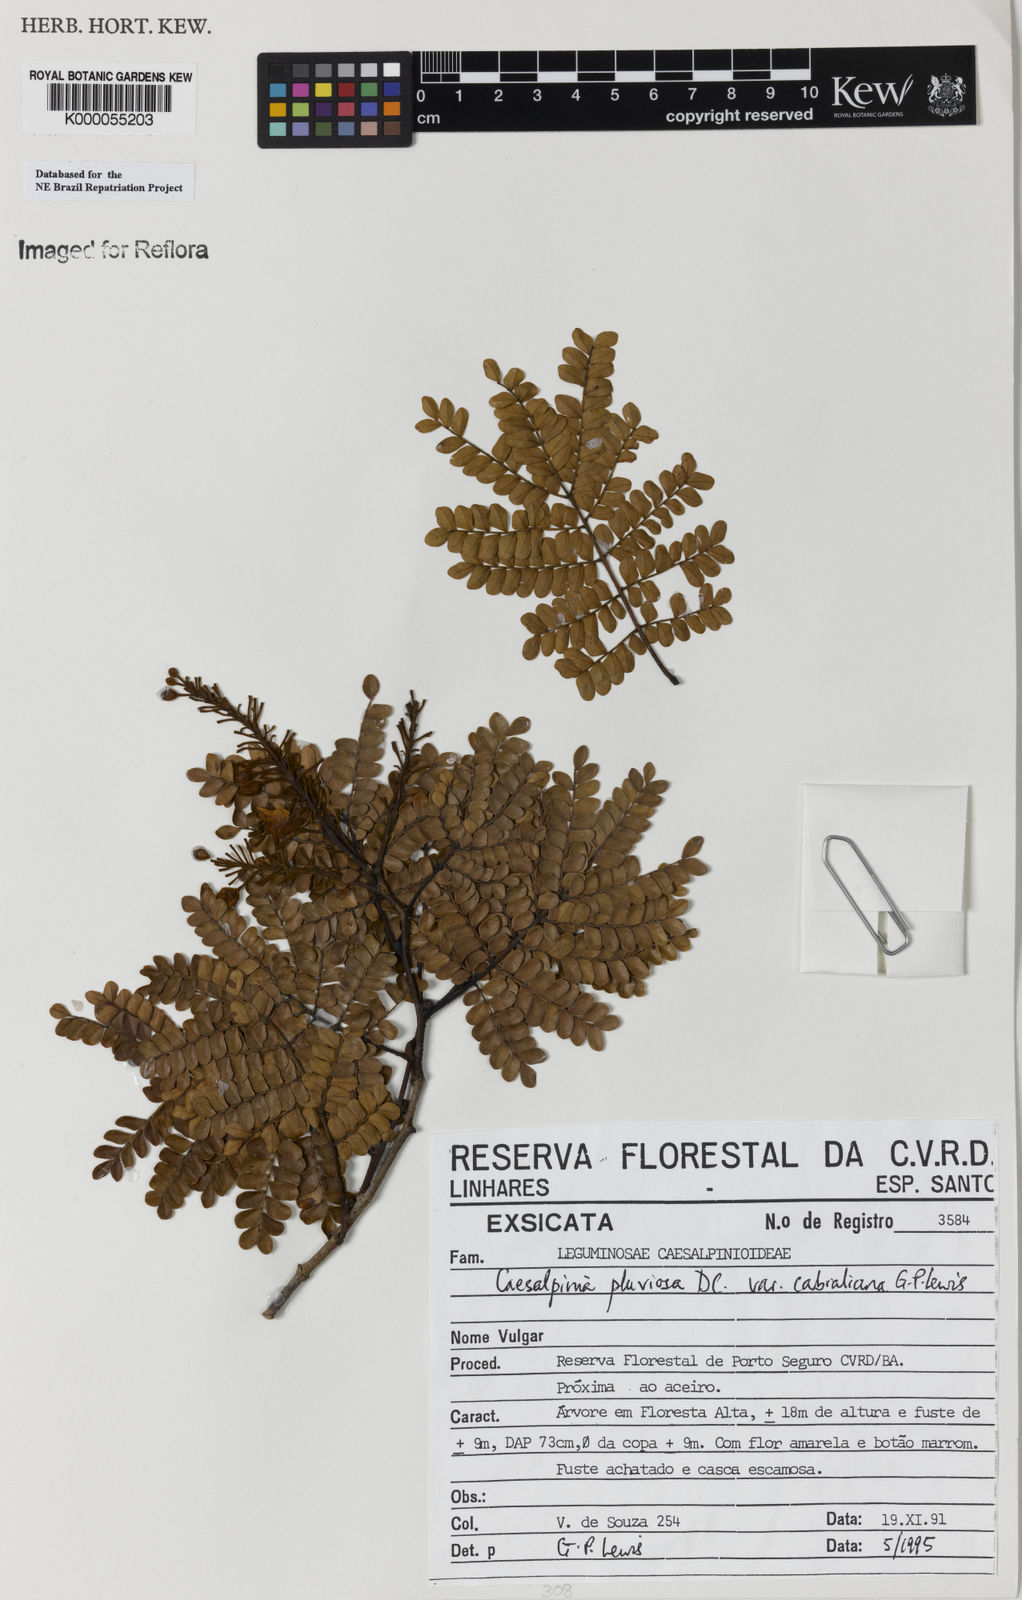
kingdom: Plantae
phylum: Tracheophyta
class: Magnoliopsida
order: Fabales
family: Fabaceae
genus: Cenostigma
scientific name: Cenostigma pluviosum
